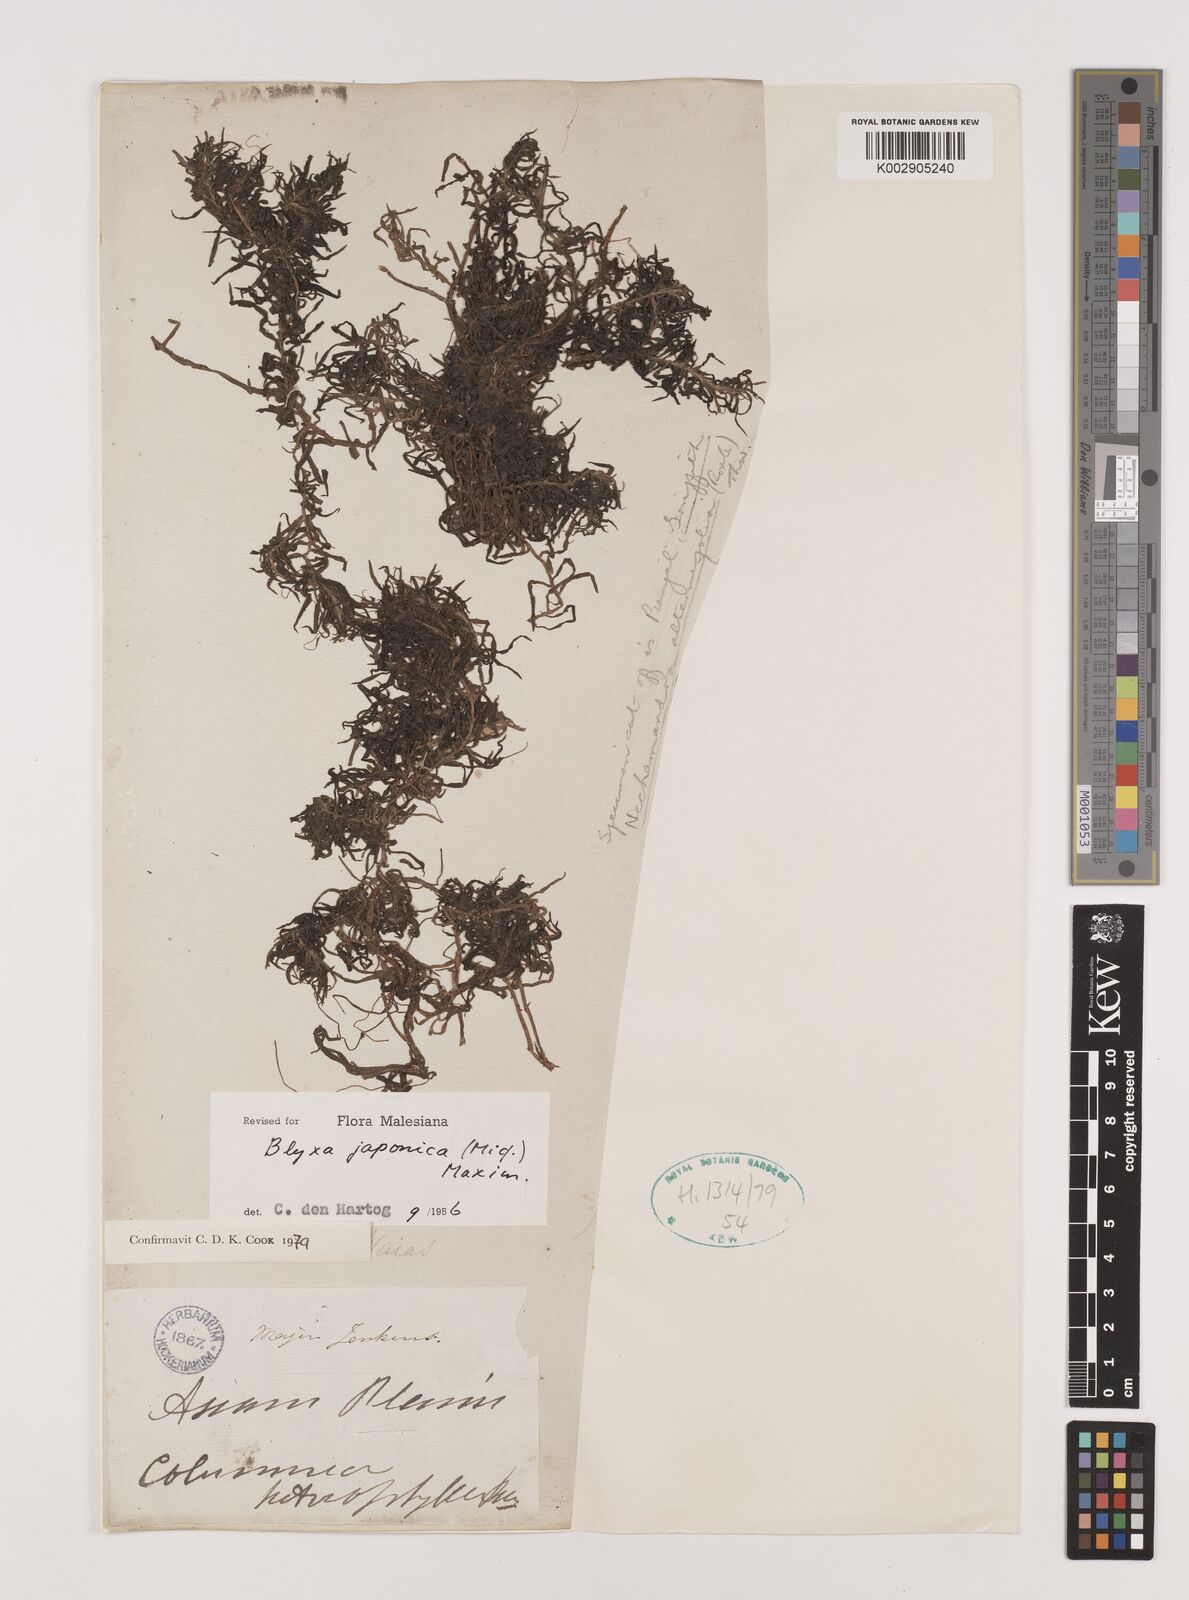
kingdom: Plantae
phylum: Tracheophyta
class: Liliopsida
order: Alismatales
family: Hydrocharitaceae
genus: Blyxa
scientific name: Blyxa japonica
